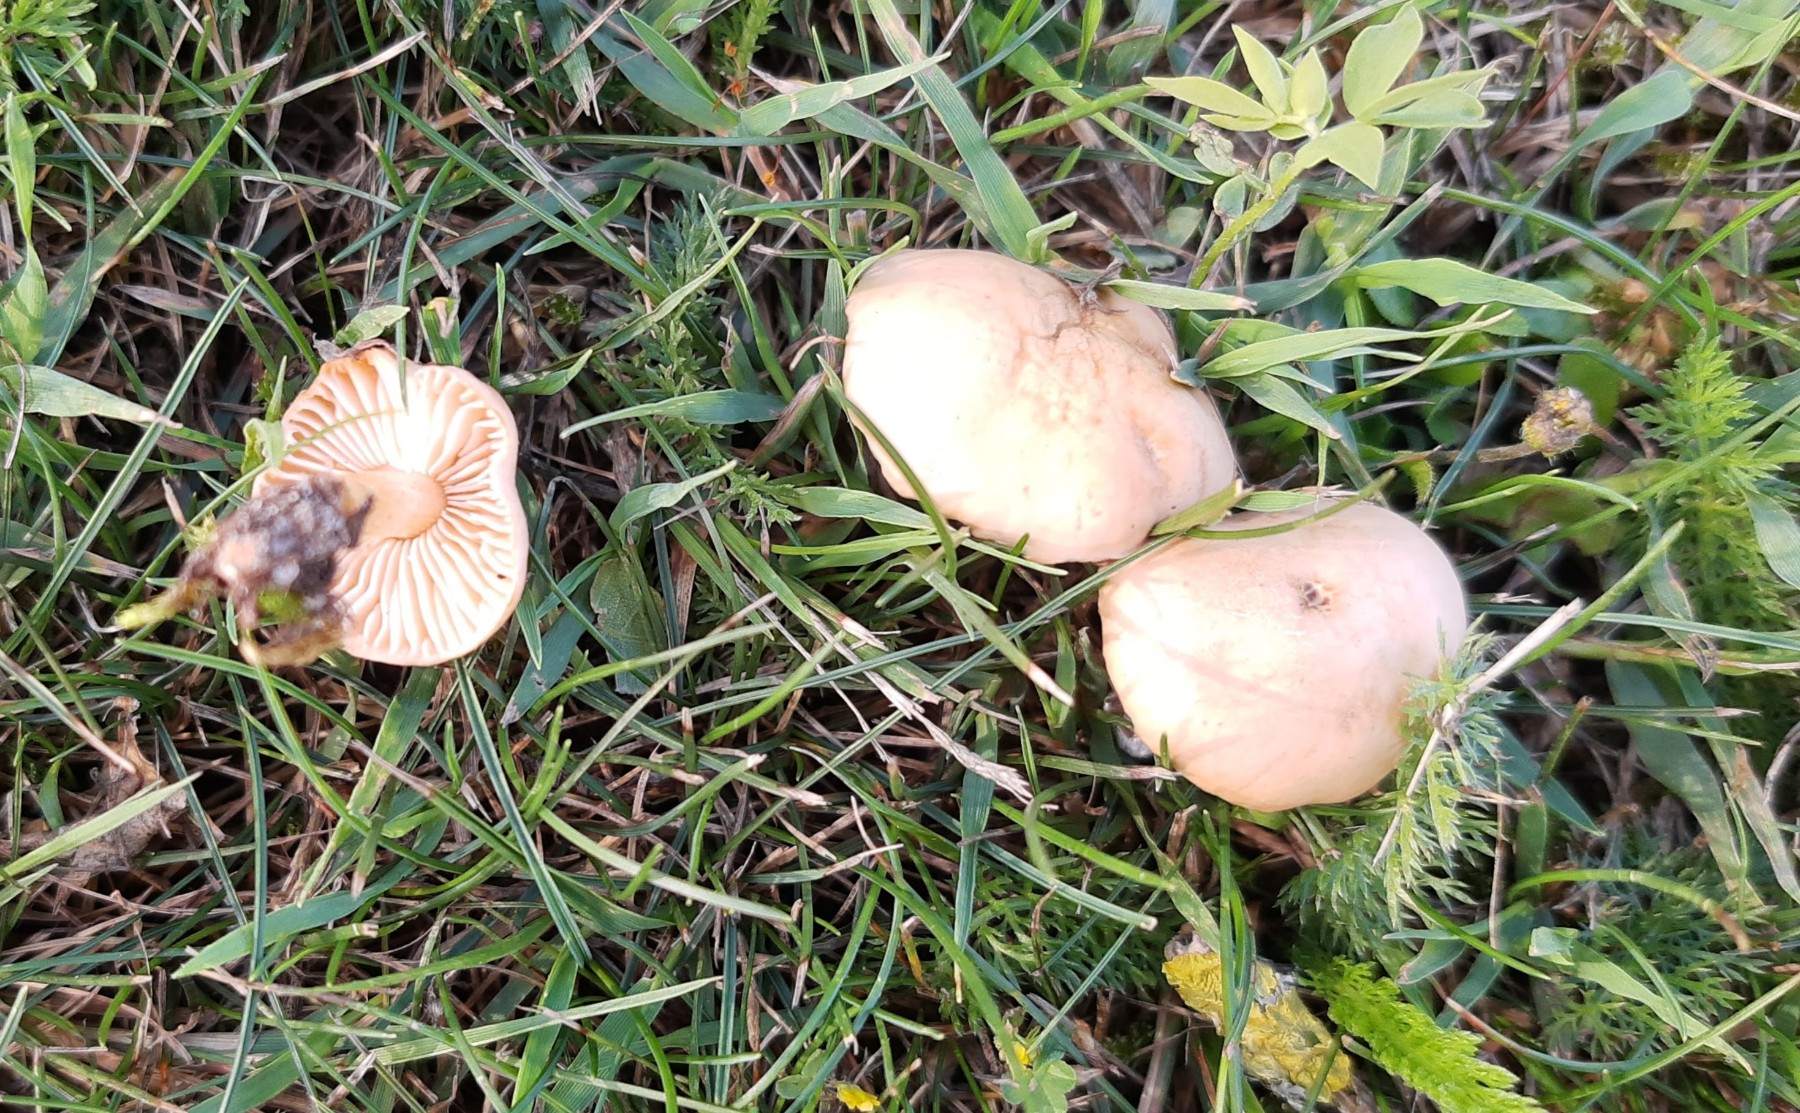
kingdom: Fungi
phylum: Basidiomycota
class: Agaricomycetes
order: Agaricales
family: Marasmiaceae
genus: Marasmius
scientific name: Marasmius oreades
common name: elledans-bruskhat
